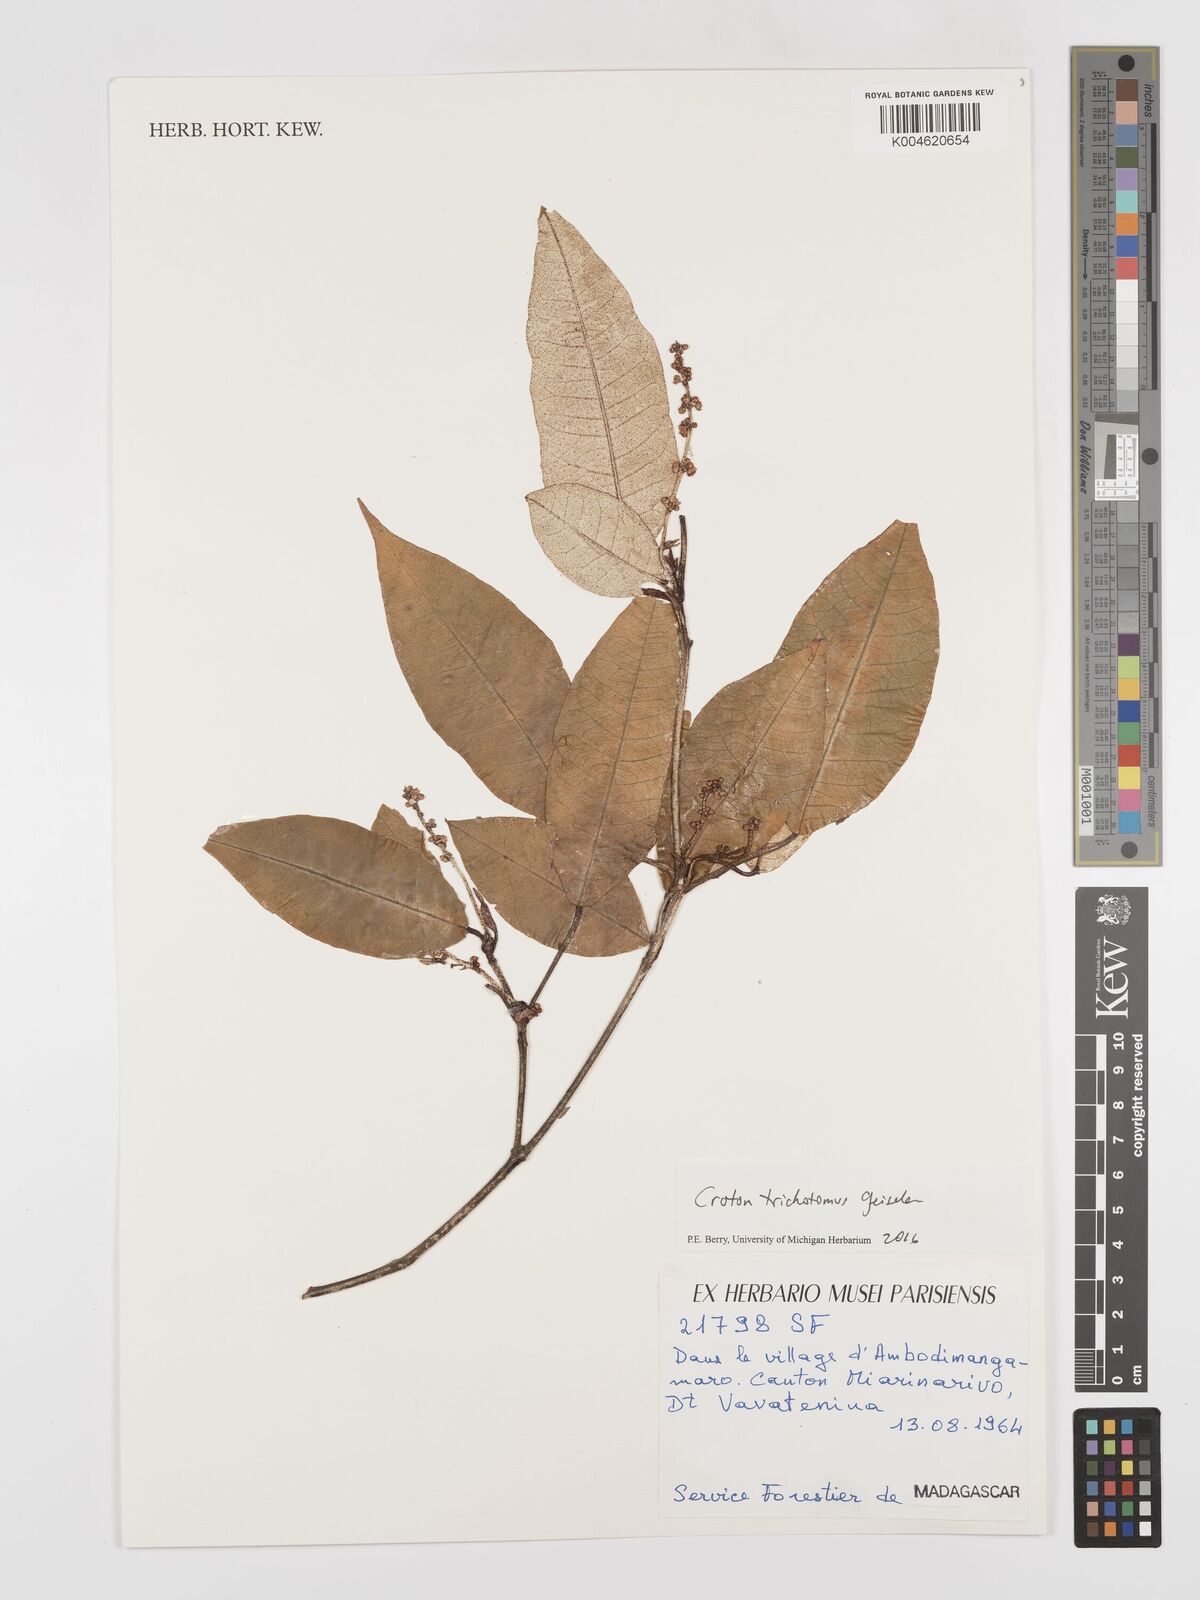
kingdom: Plantae
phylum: Tracheophyta
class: Magnoliopsida
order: Malpighiales
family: Euphorbiaceae
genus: Croton
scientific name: Croton trichotomus
